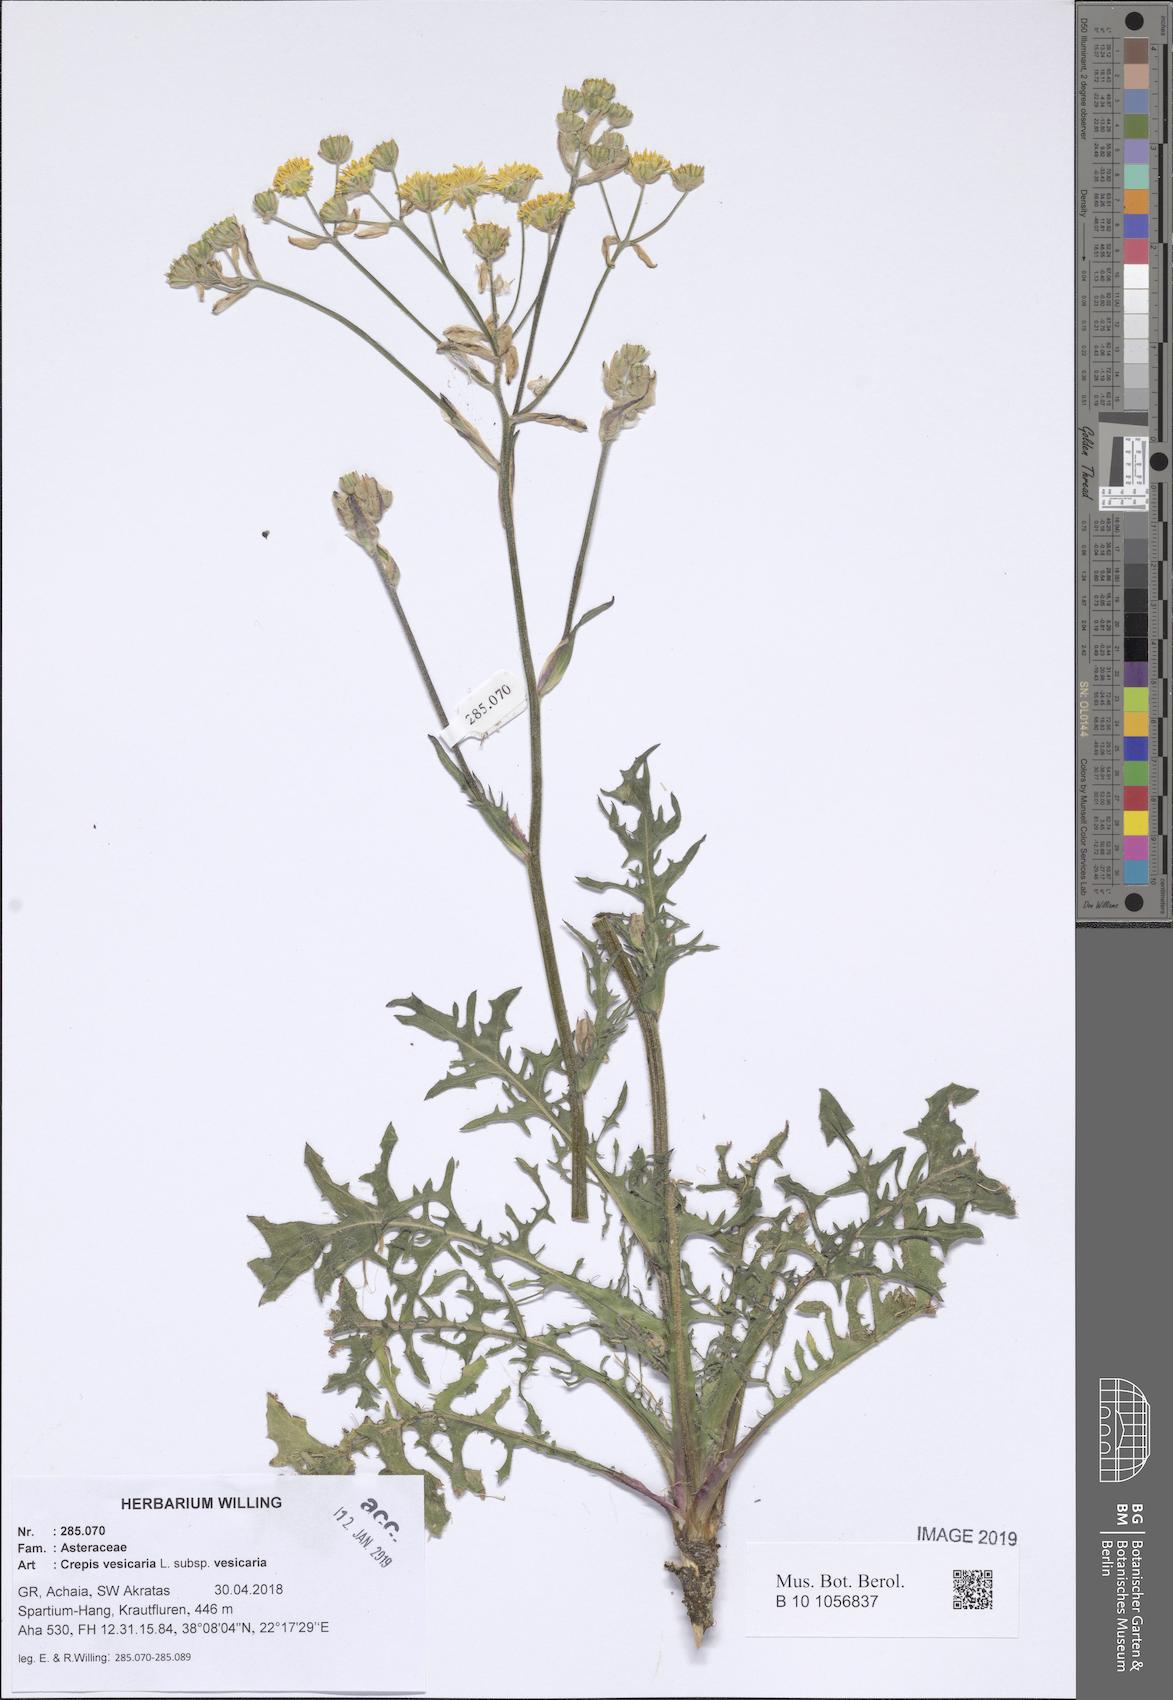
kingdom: Plantae
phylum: Tracheophyta
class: Magnoliopsida
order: Asterales
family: Asteraceae
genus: Crepis
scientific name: Crepis vesicaria
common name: Beaked hawksbeard
